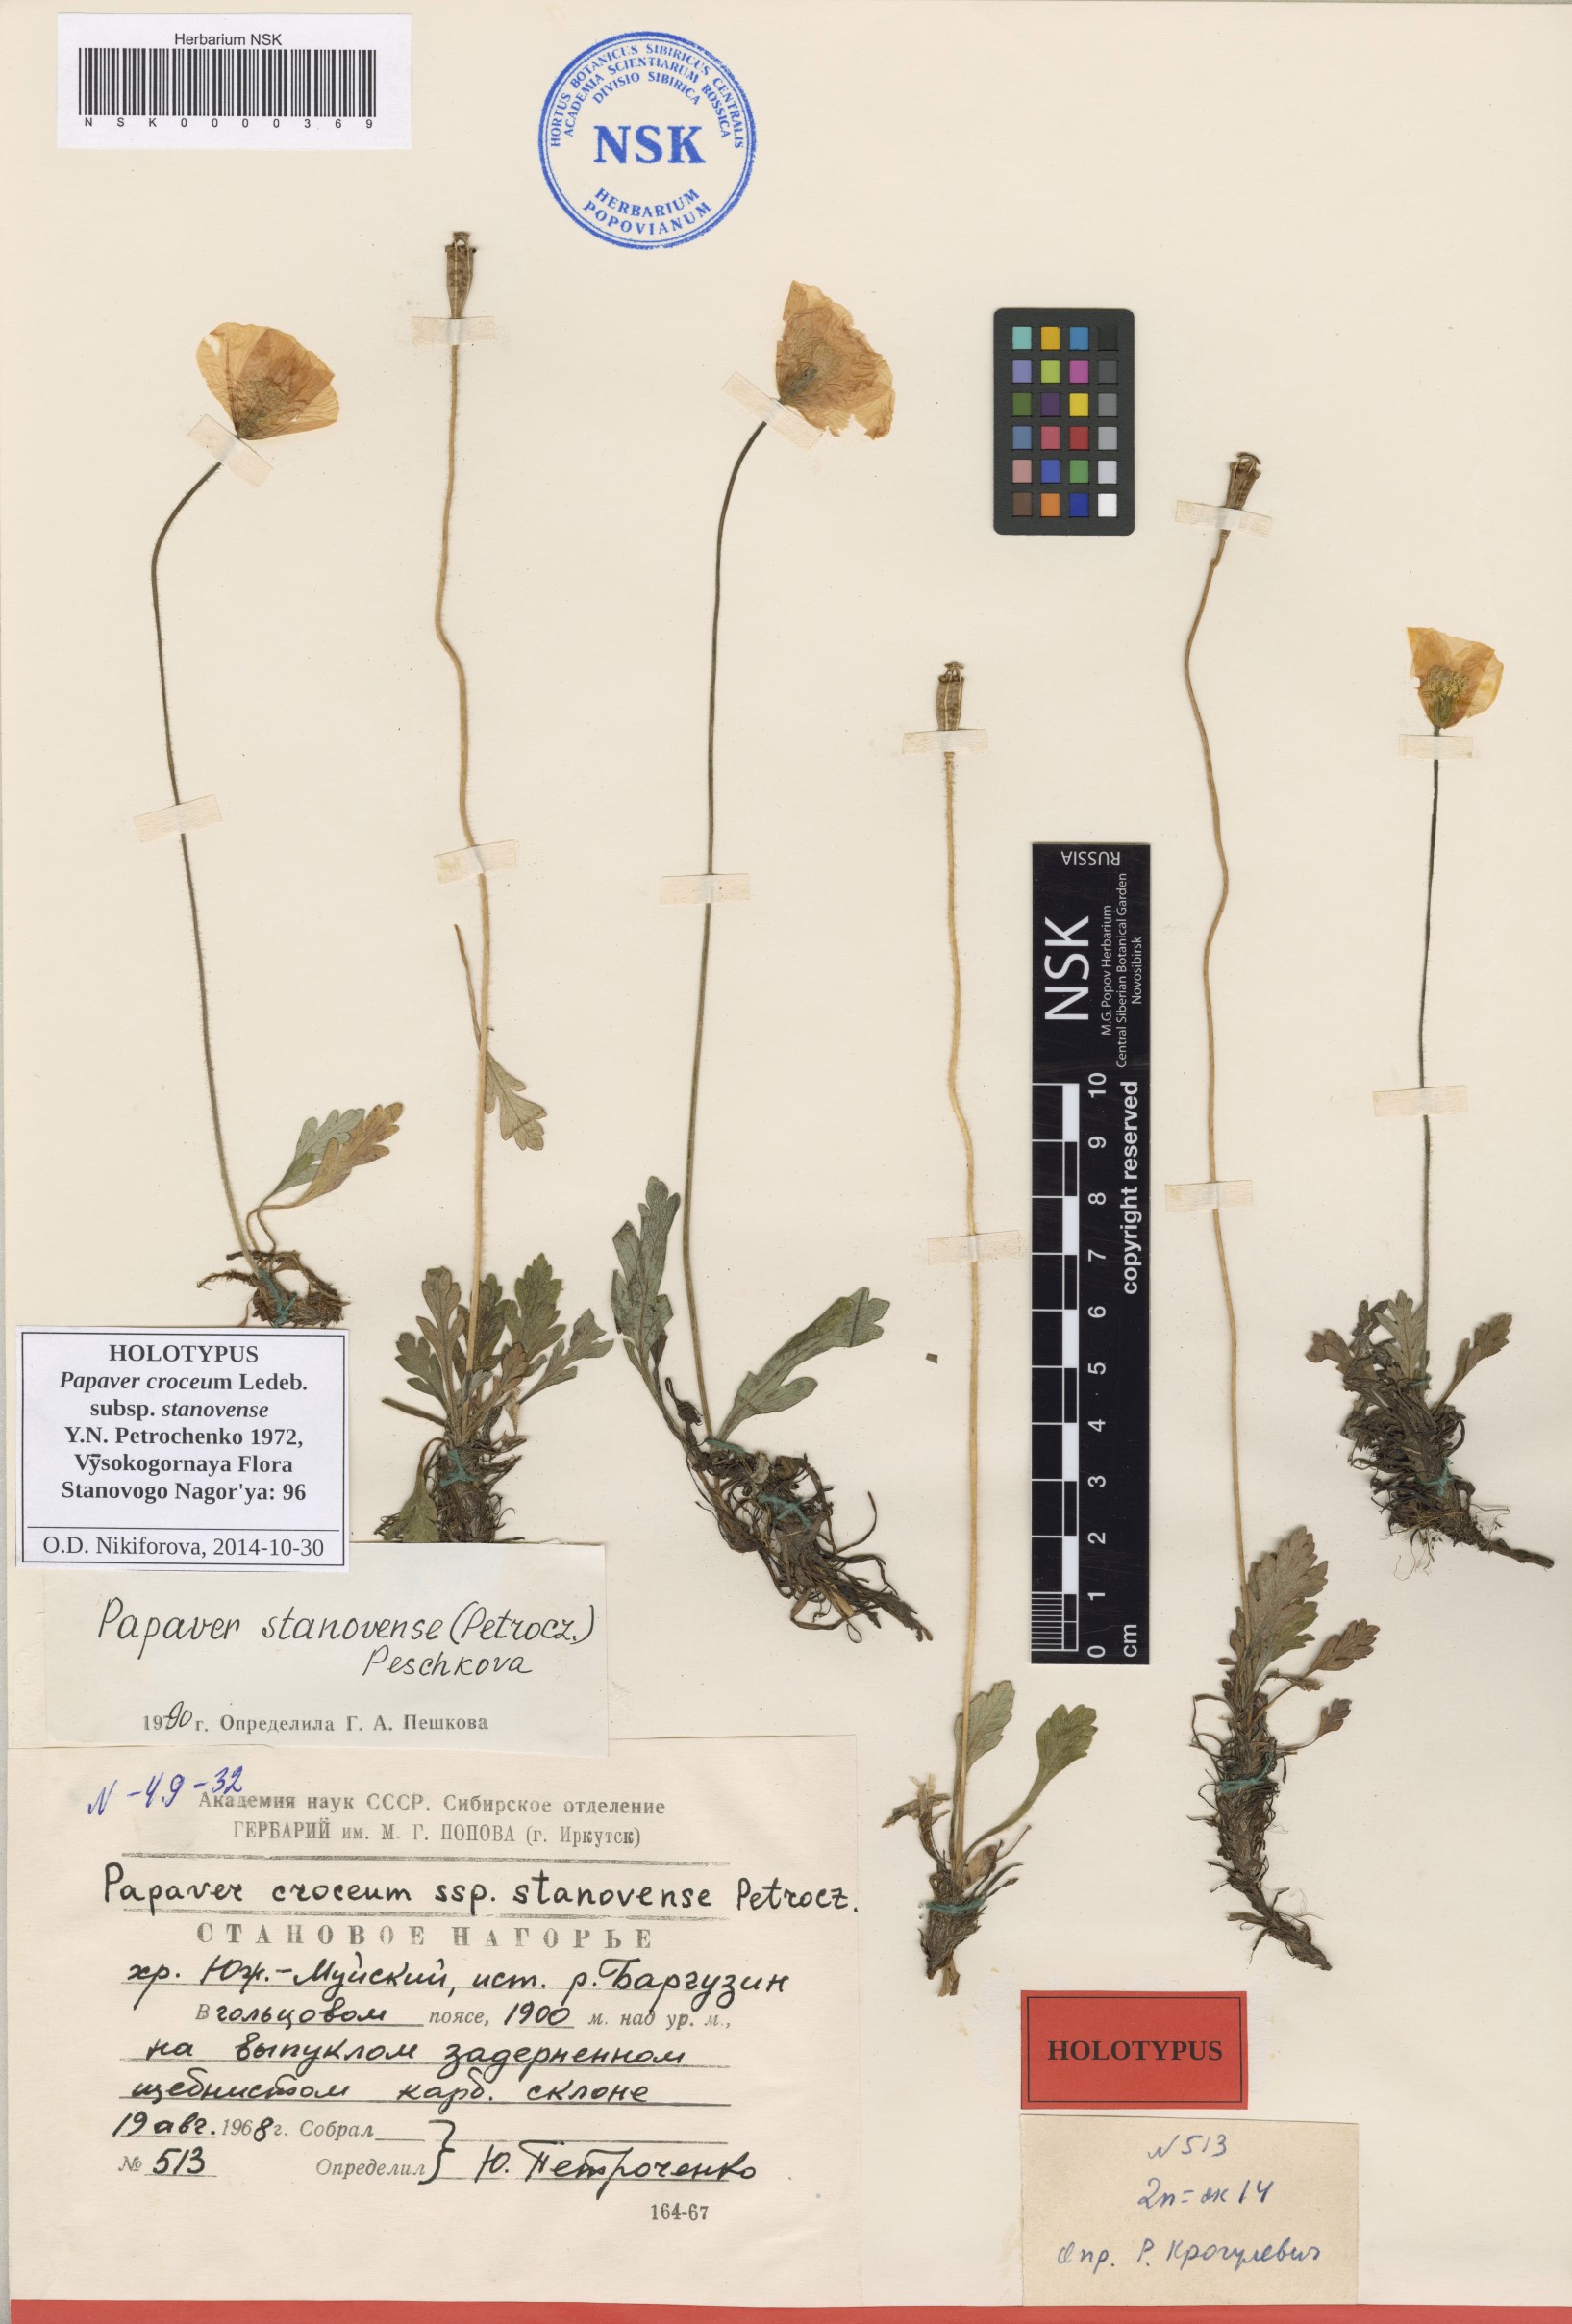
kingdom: Plantae
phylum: Tracheophyta
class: Magnoliopsida
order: Ranunculales
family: Papaveraceae
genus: Papaver
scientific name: Papaver stanovense
